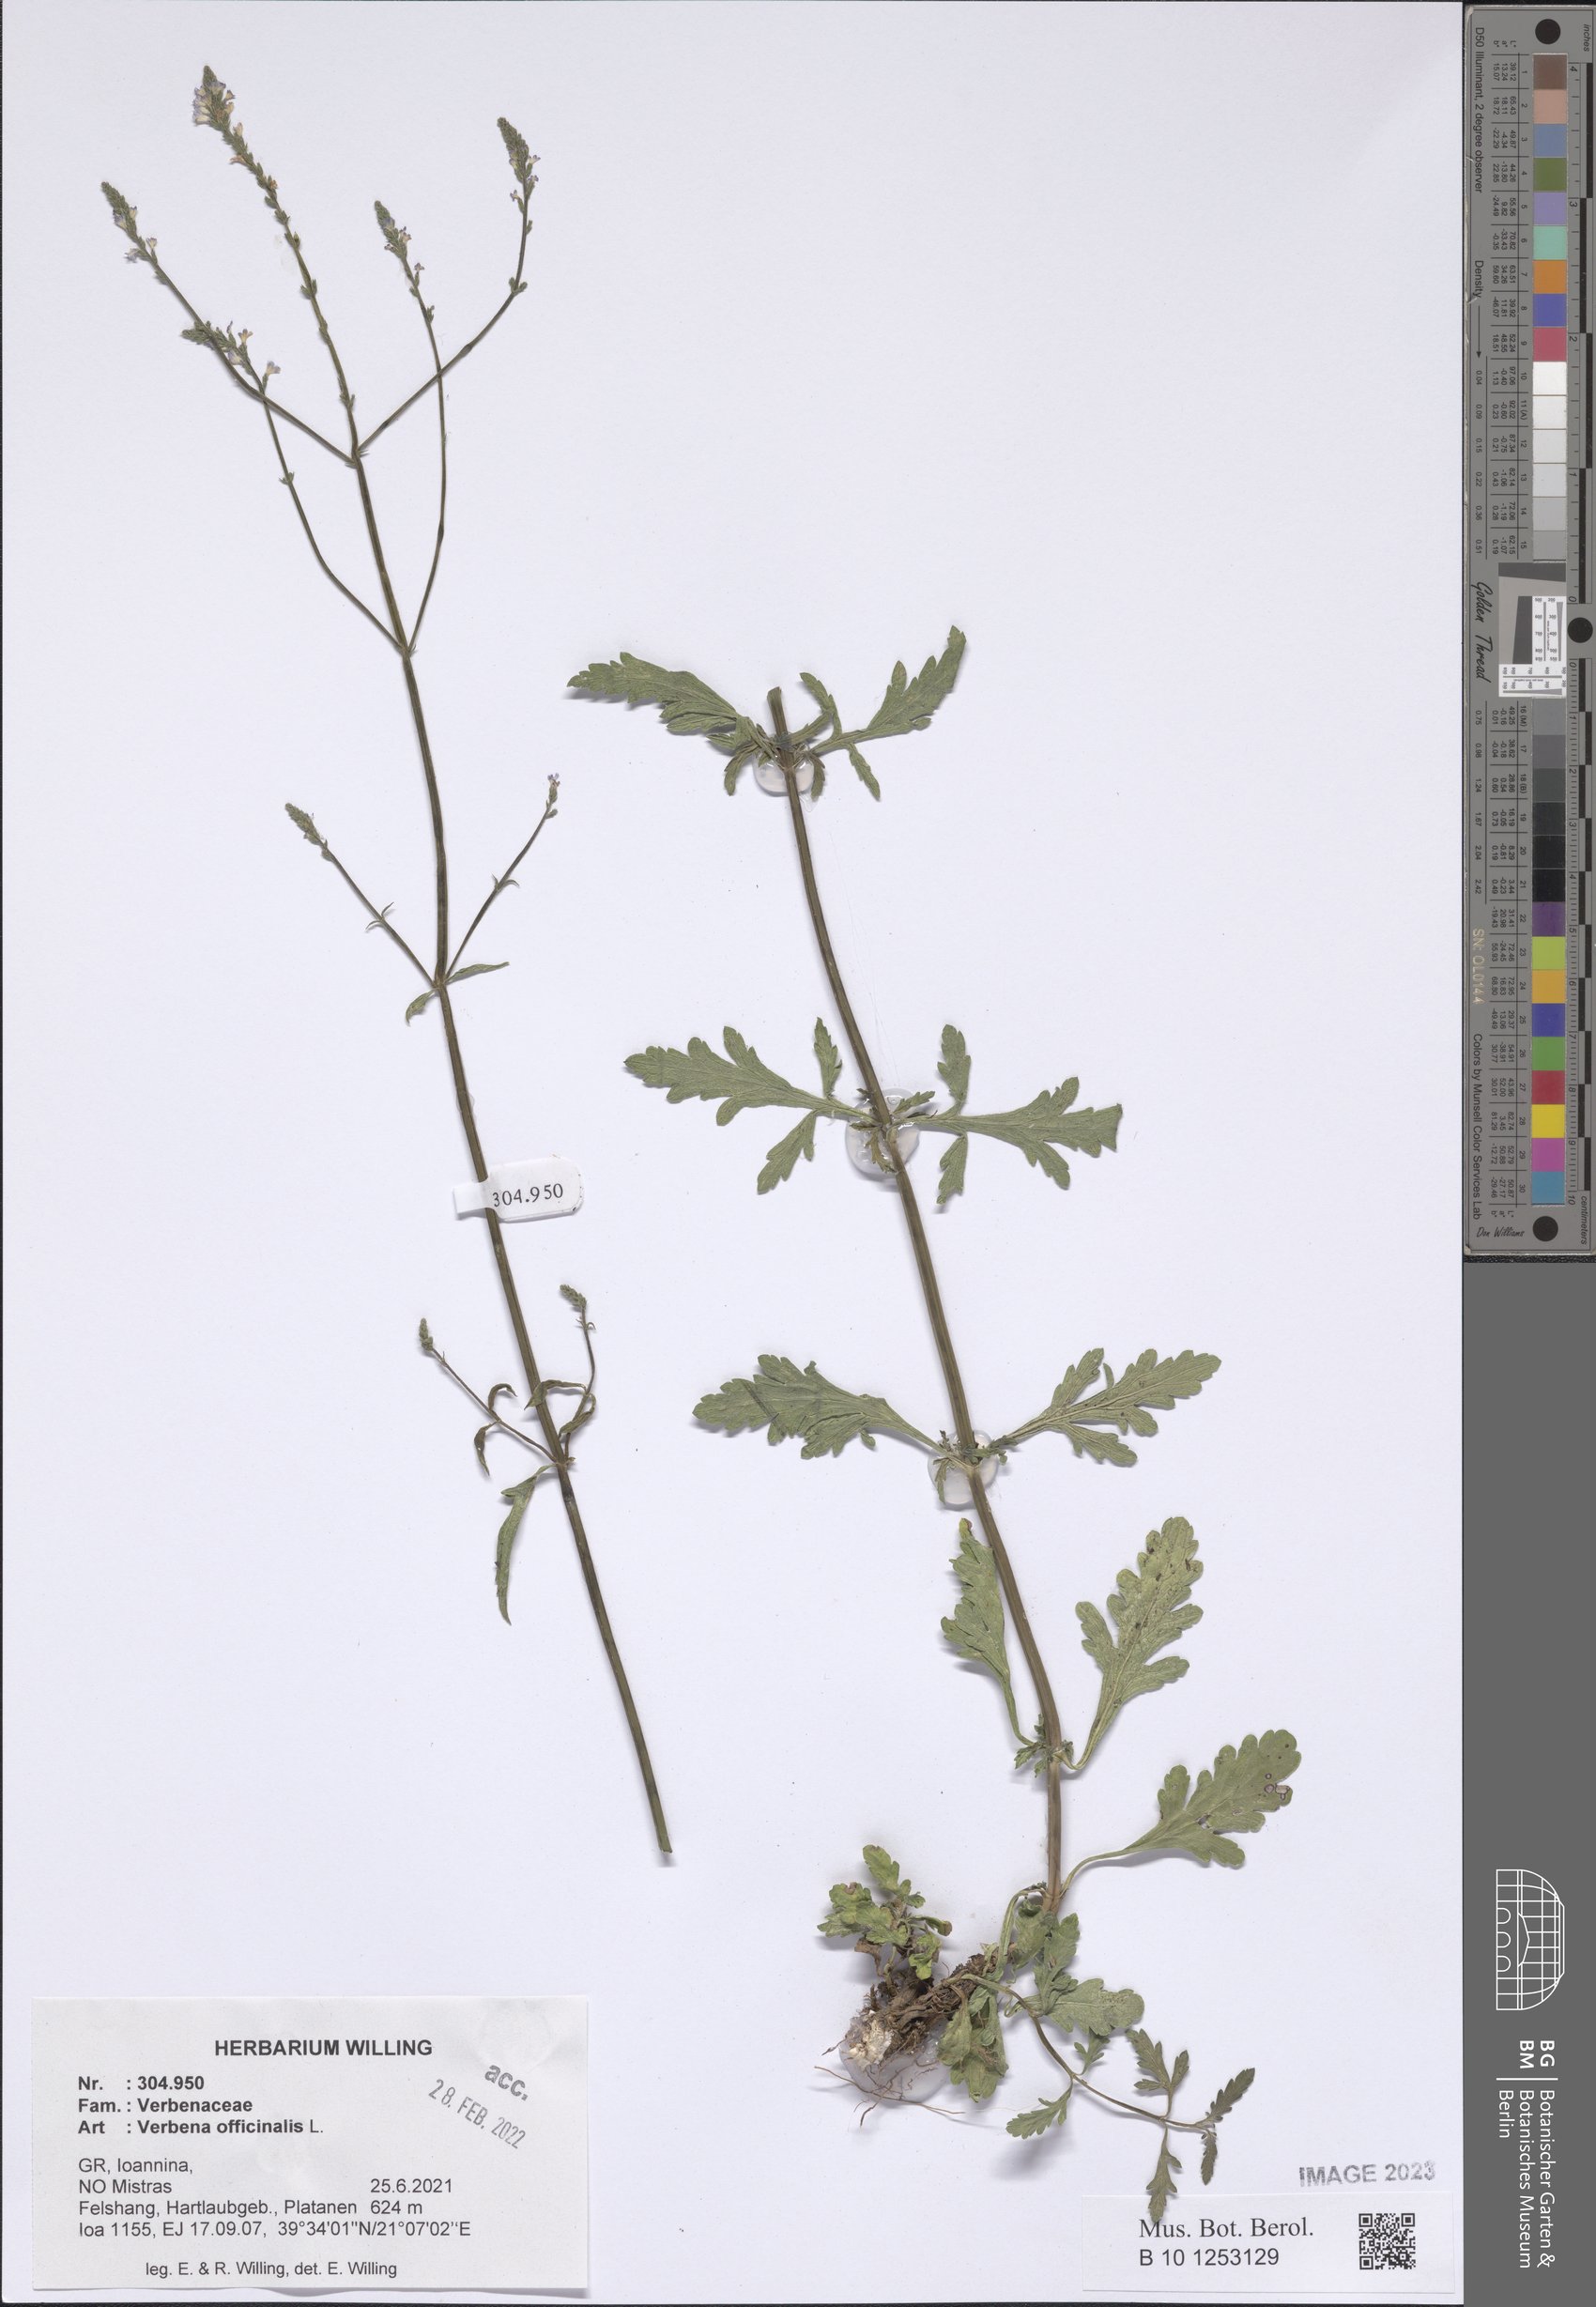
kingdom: Plantae
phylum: Tracheophyta
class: Magnoliopsida
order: Lamiales
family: Verbenaceae
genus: Verbena
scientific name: Verbena officinalis
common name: Vervain
